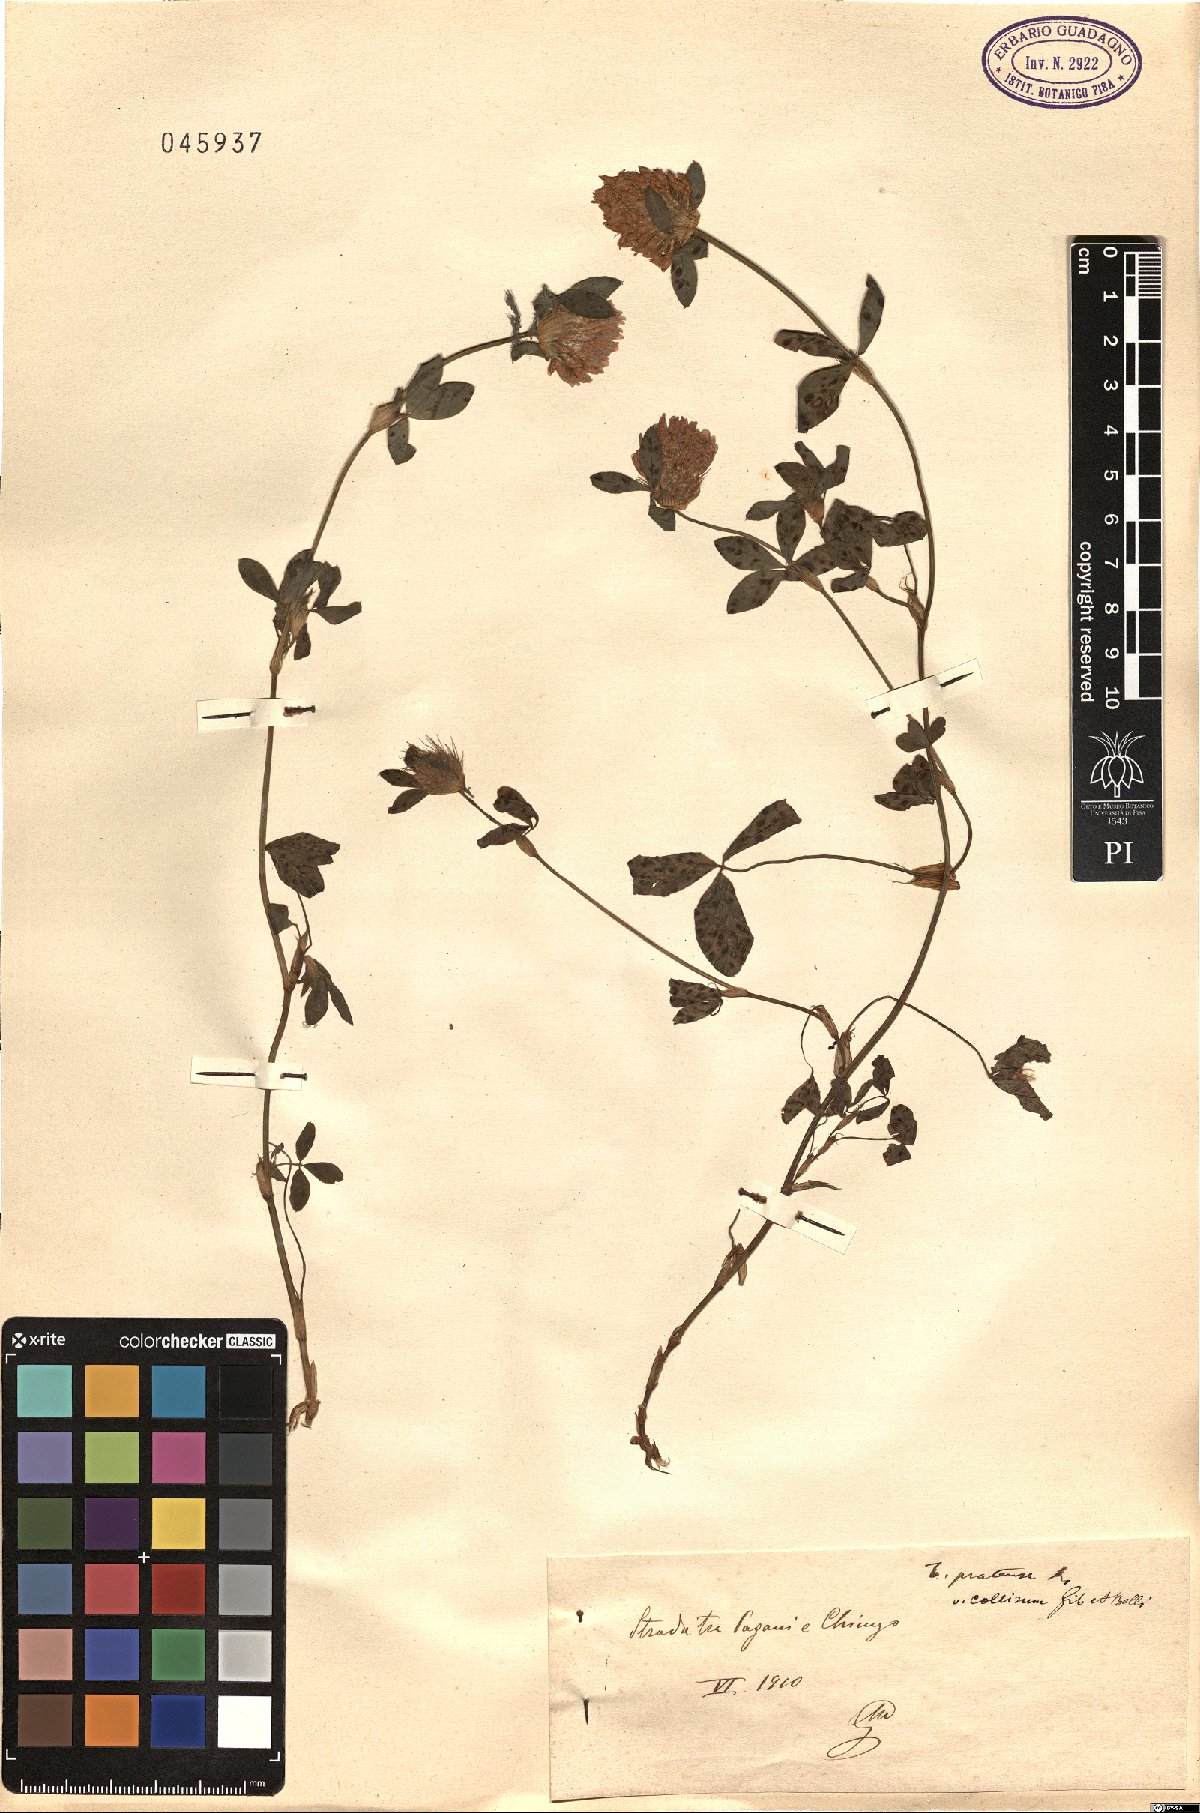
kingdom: Plantae
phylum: Tracheophyta
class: Magnoliopsida
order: Fabales
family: Fabaceae
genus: Trifolium
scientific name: Trifolium pratense
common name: Red clover
